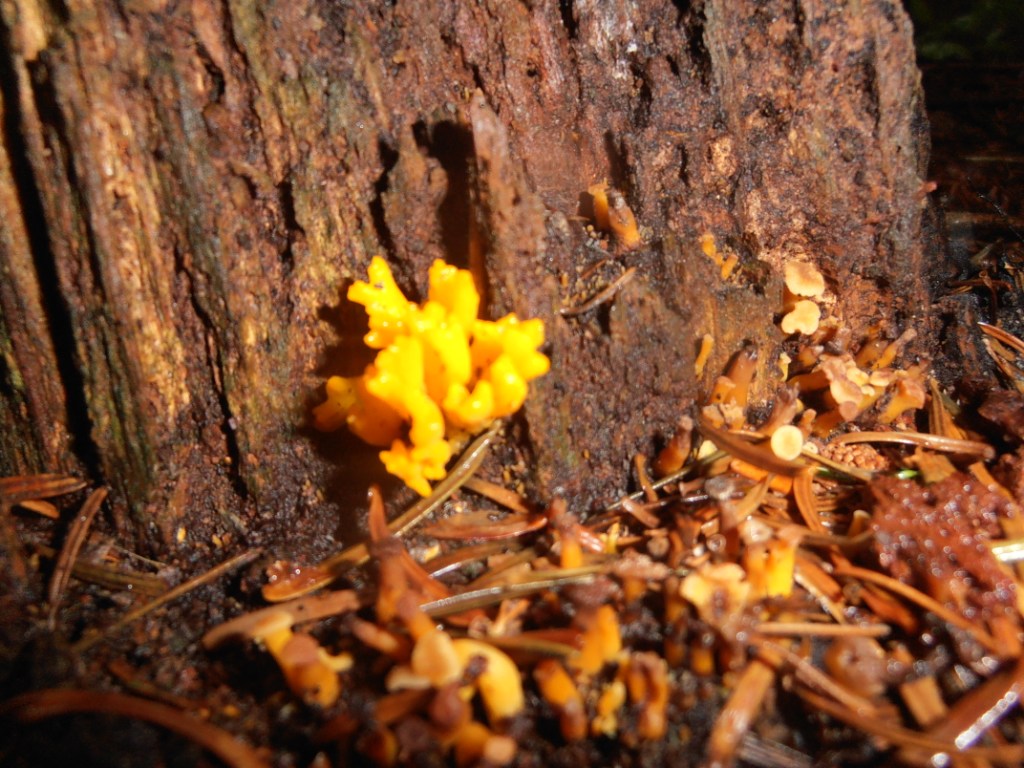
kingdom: Fungi
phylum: Basidiomycota
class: Dacrymycetes
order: Dacrymycetales
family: Dacrymycetaceae
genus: Calocera
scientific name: Calocera viscosa
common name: almindelig guldgaffel
